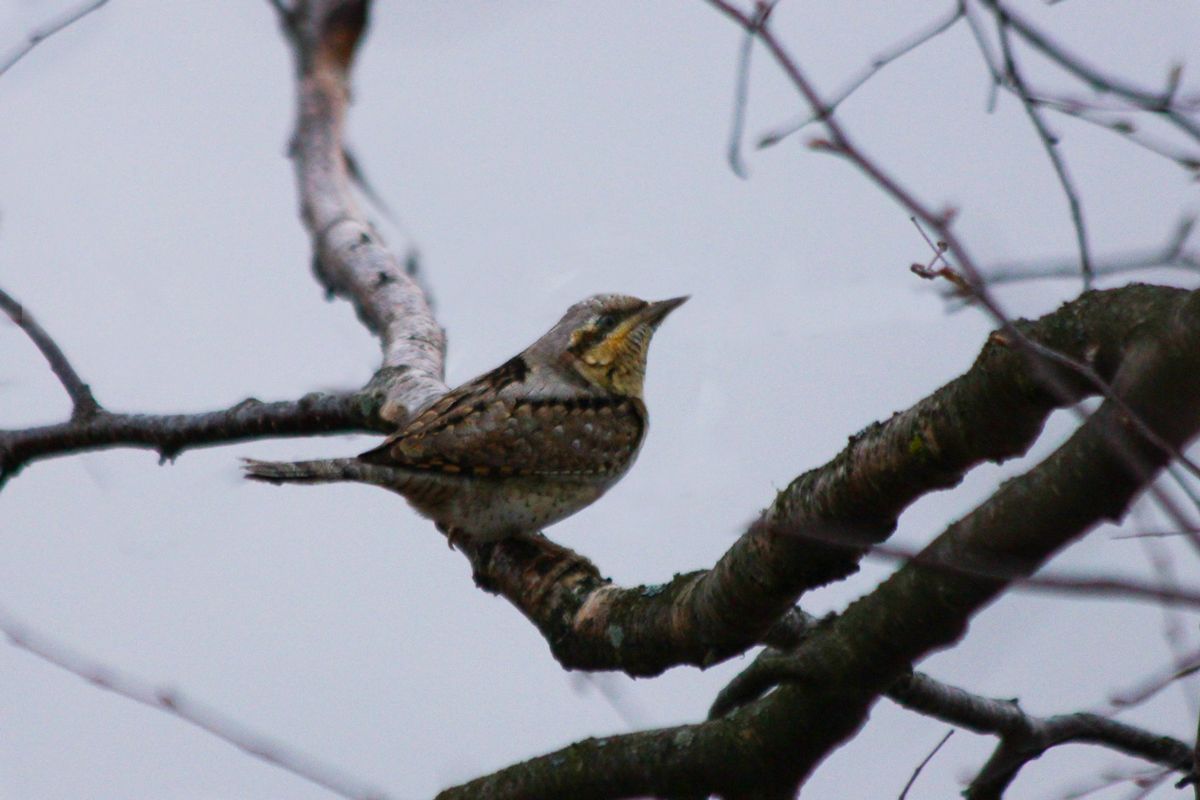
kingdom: Animalia
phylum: Chordata
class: Aves
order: Piciformes
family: Picidae
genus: Jynx
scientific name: Jynx torquilla
